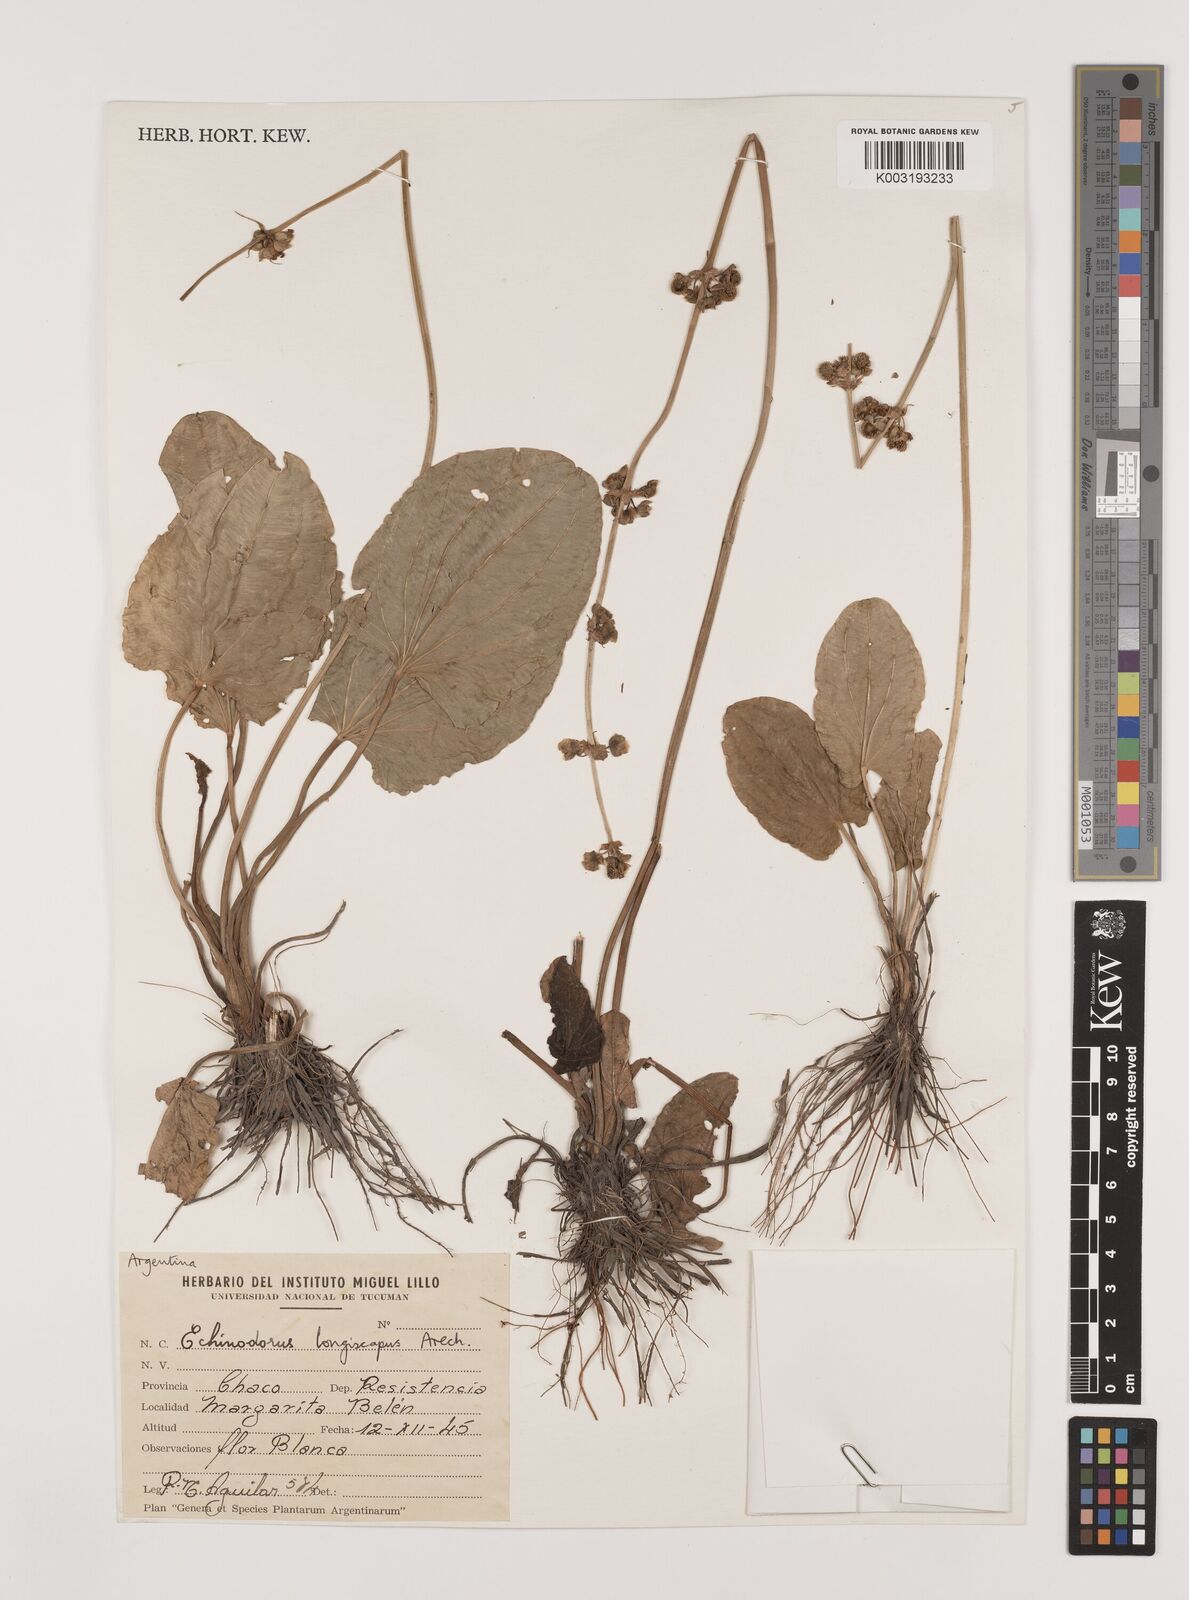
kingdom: Plantae
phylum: Tracheophyta
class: Liliopsida
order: Alismatales
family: Alismataceae
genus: Aquarius
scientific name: Aquarius longiscapus
